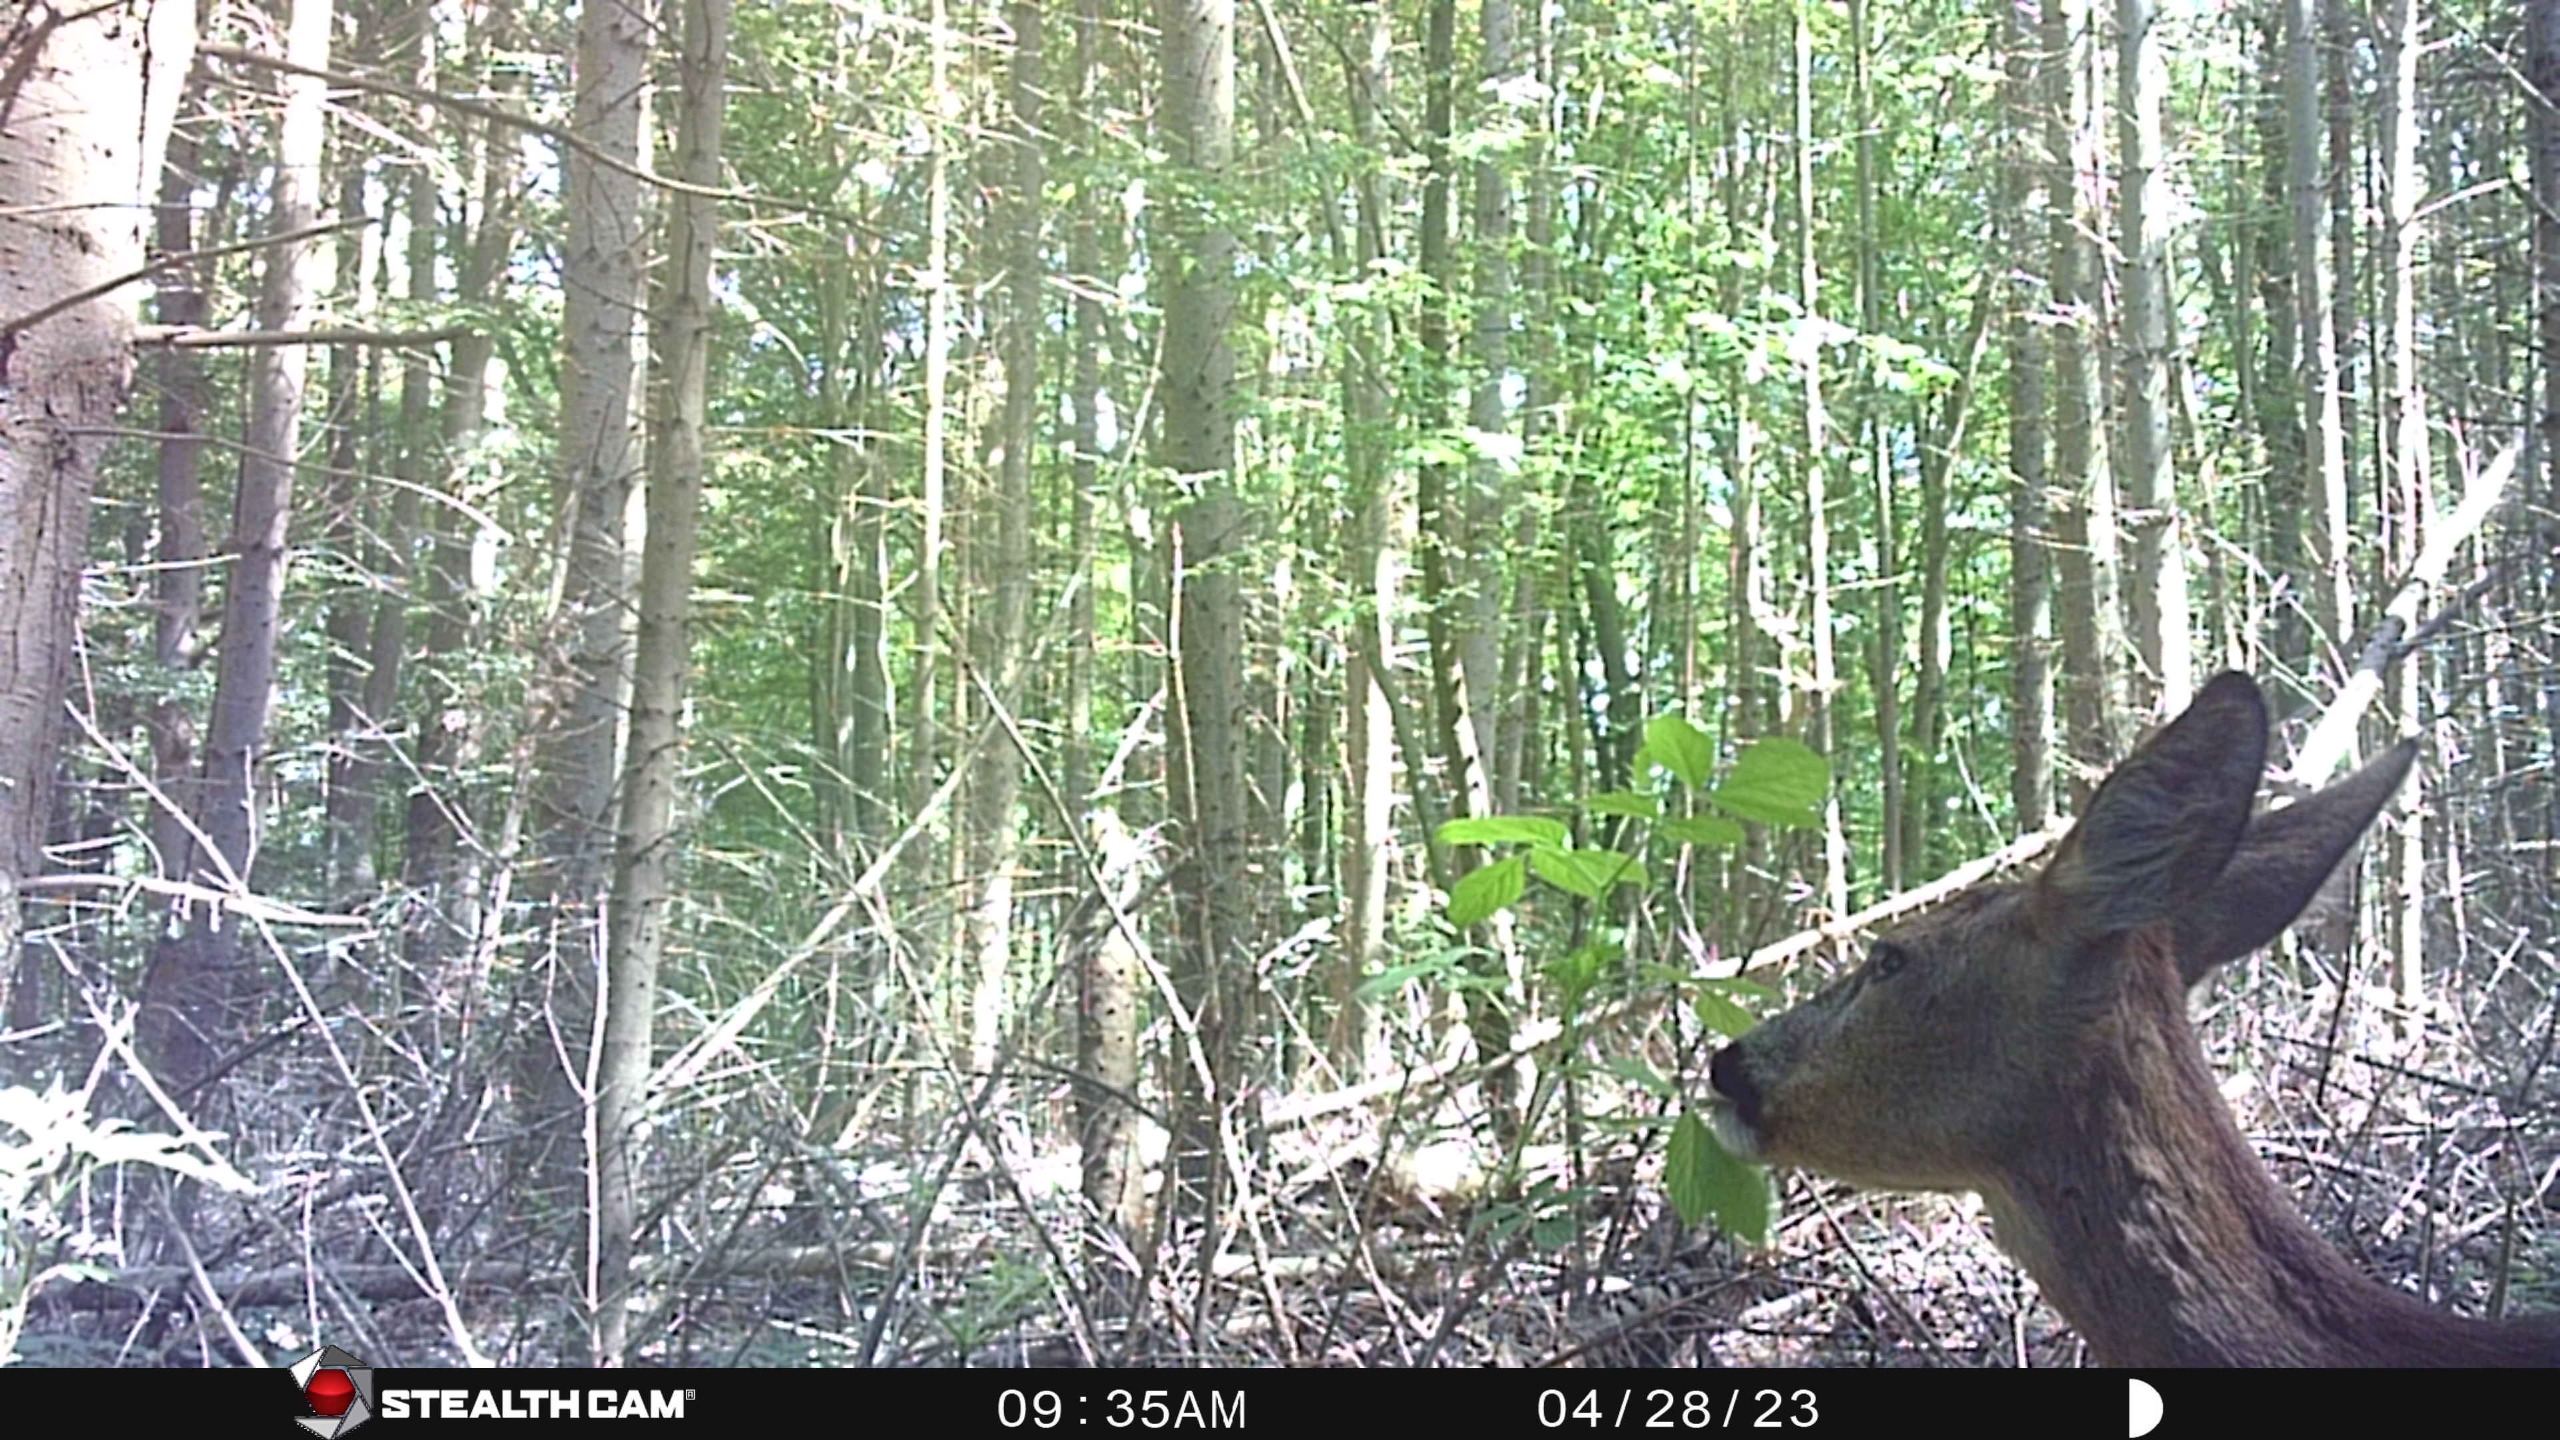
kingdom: Animalia
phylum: Chordata
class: Mammalia
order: Artiodactyla
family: Cervidae
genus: Capreolus
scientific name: Capreolus capreolus
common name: Rådyr
